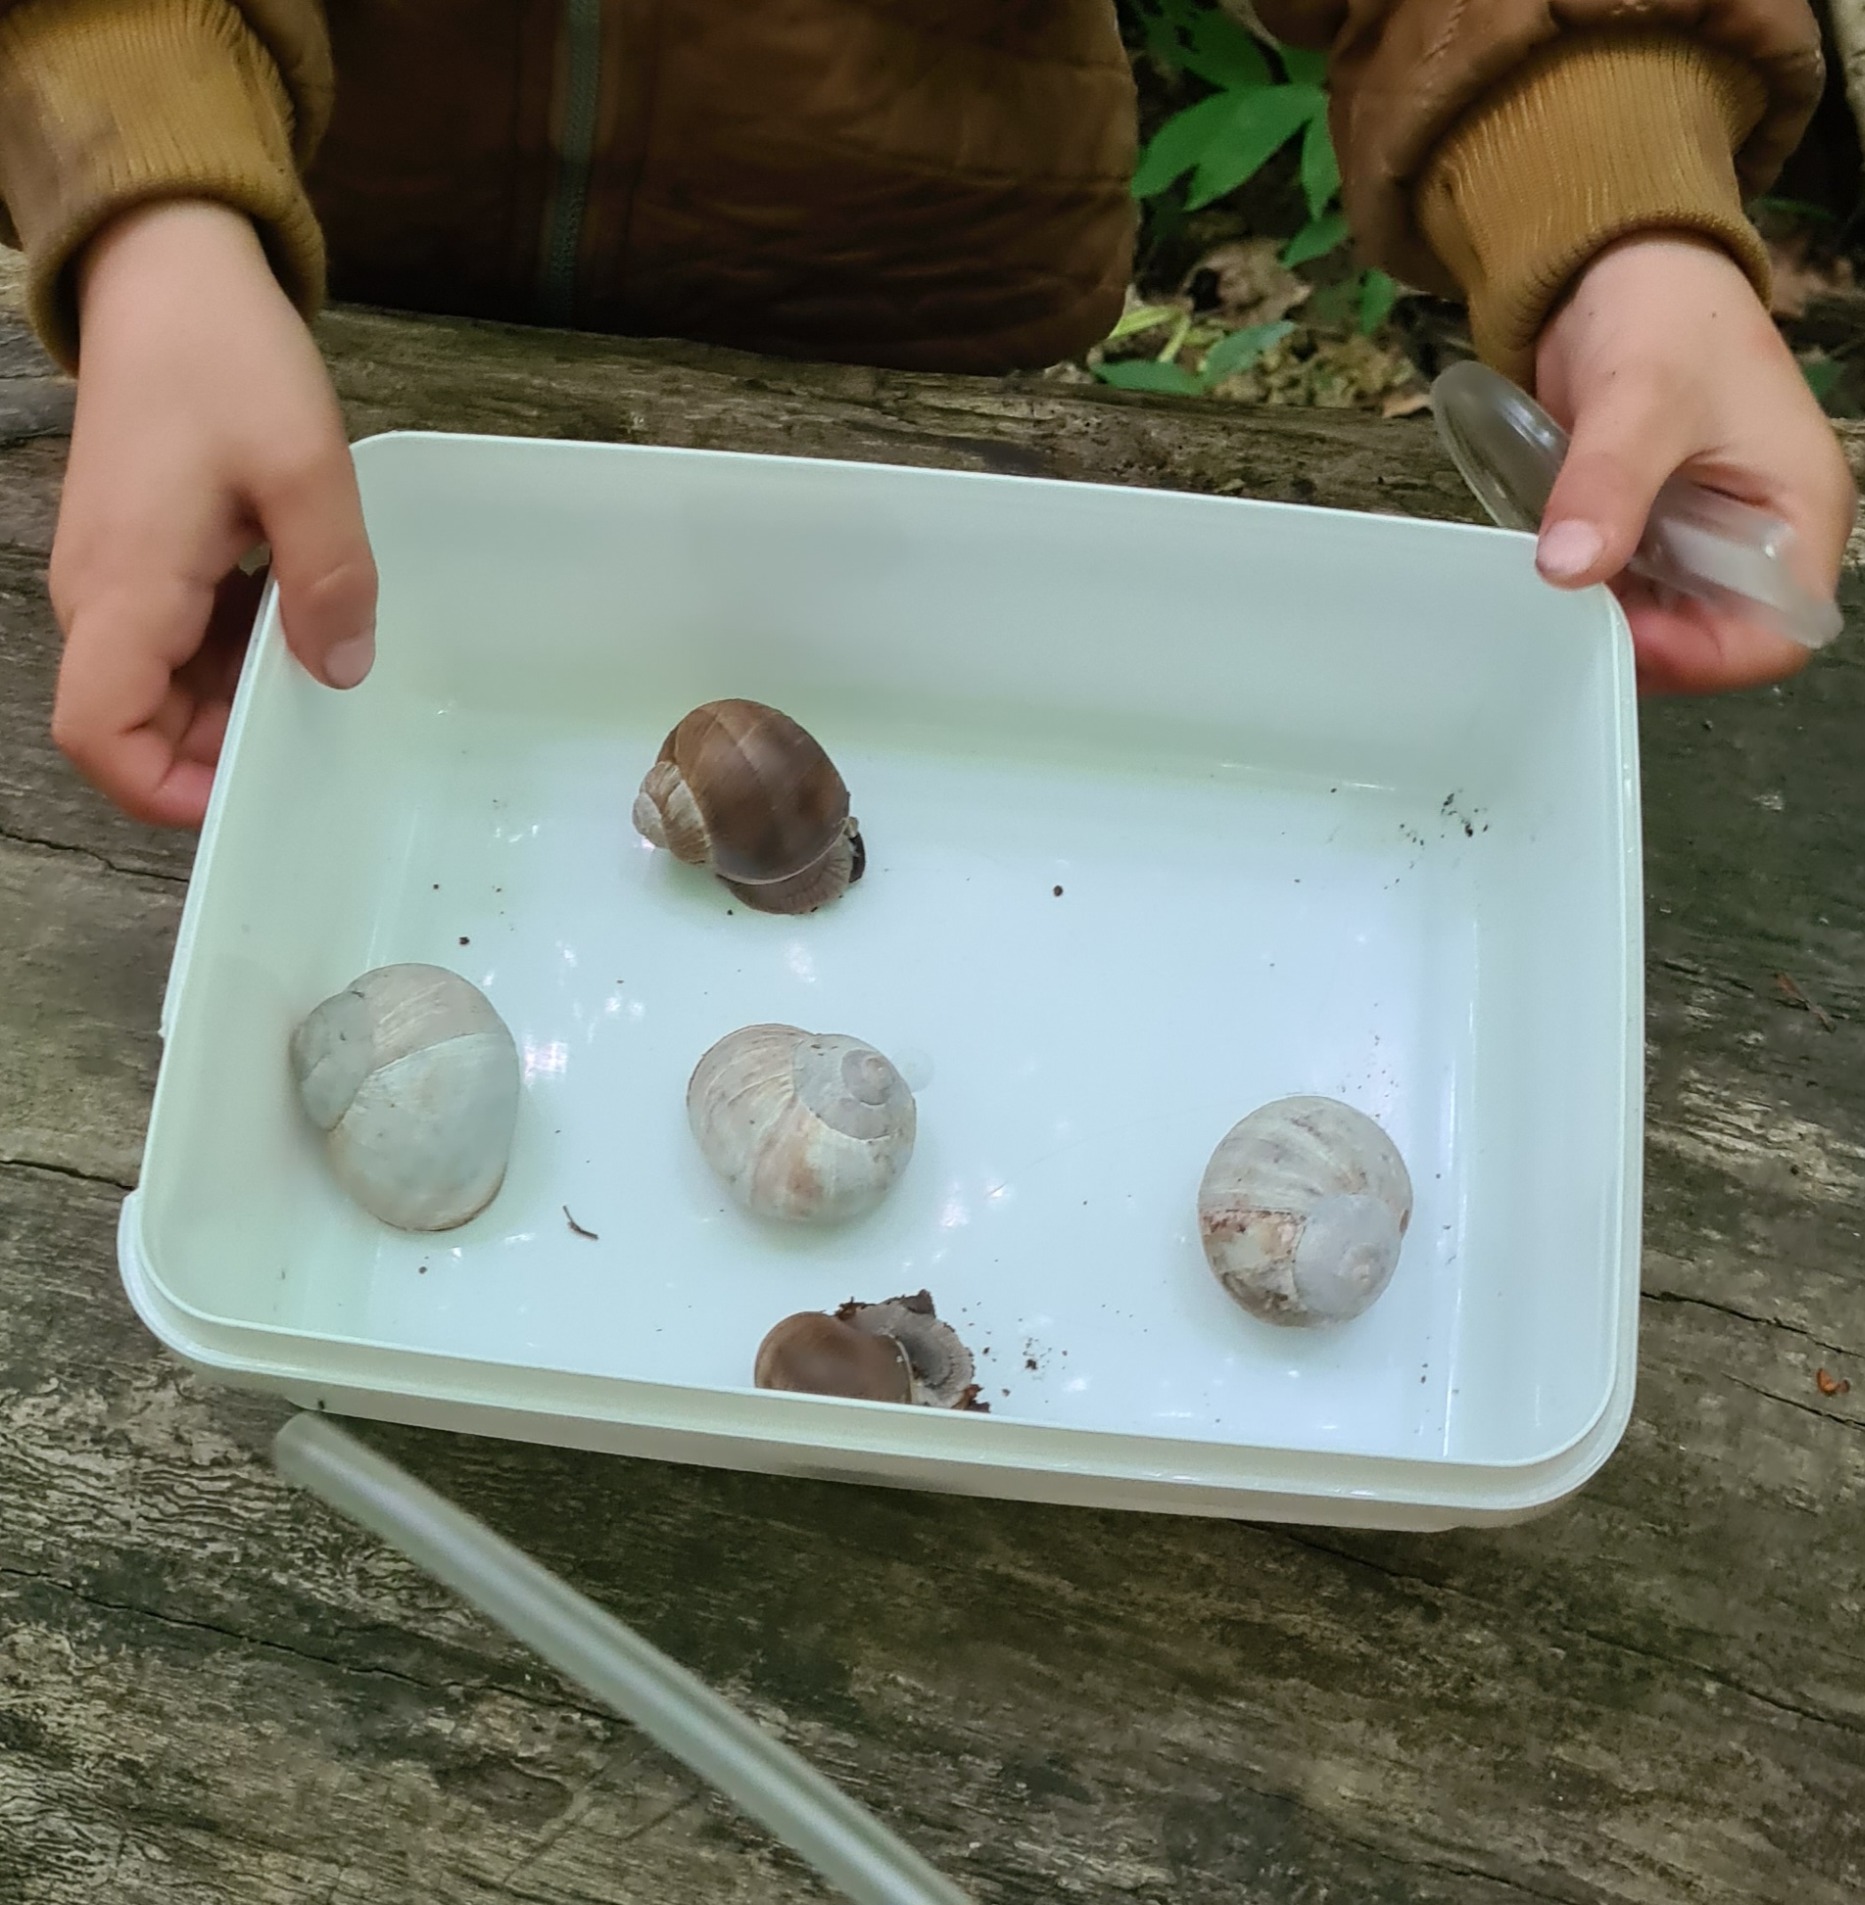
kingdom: Animalia
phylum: Mollusca
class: Gastropoda
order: Stylommatophora
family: Helicidae
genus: Helix
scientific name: Helix pomatia
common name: Vinbjergsnegl
